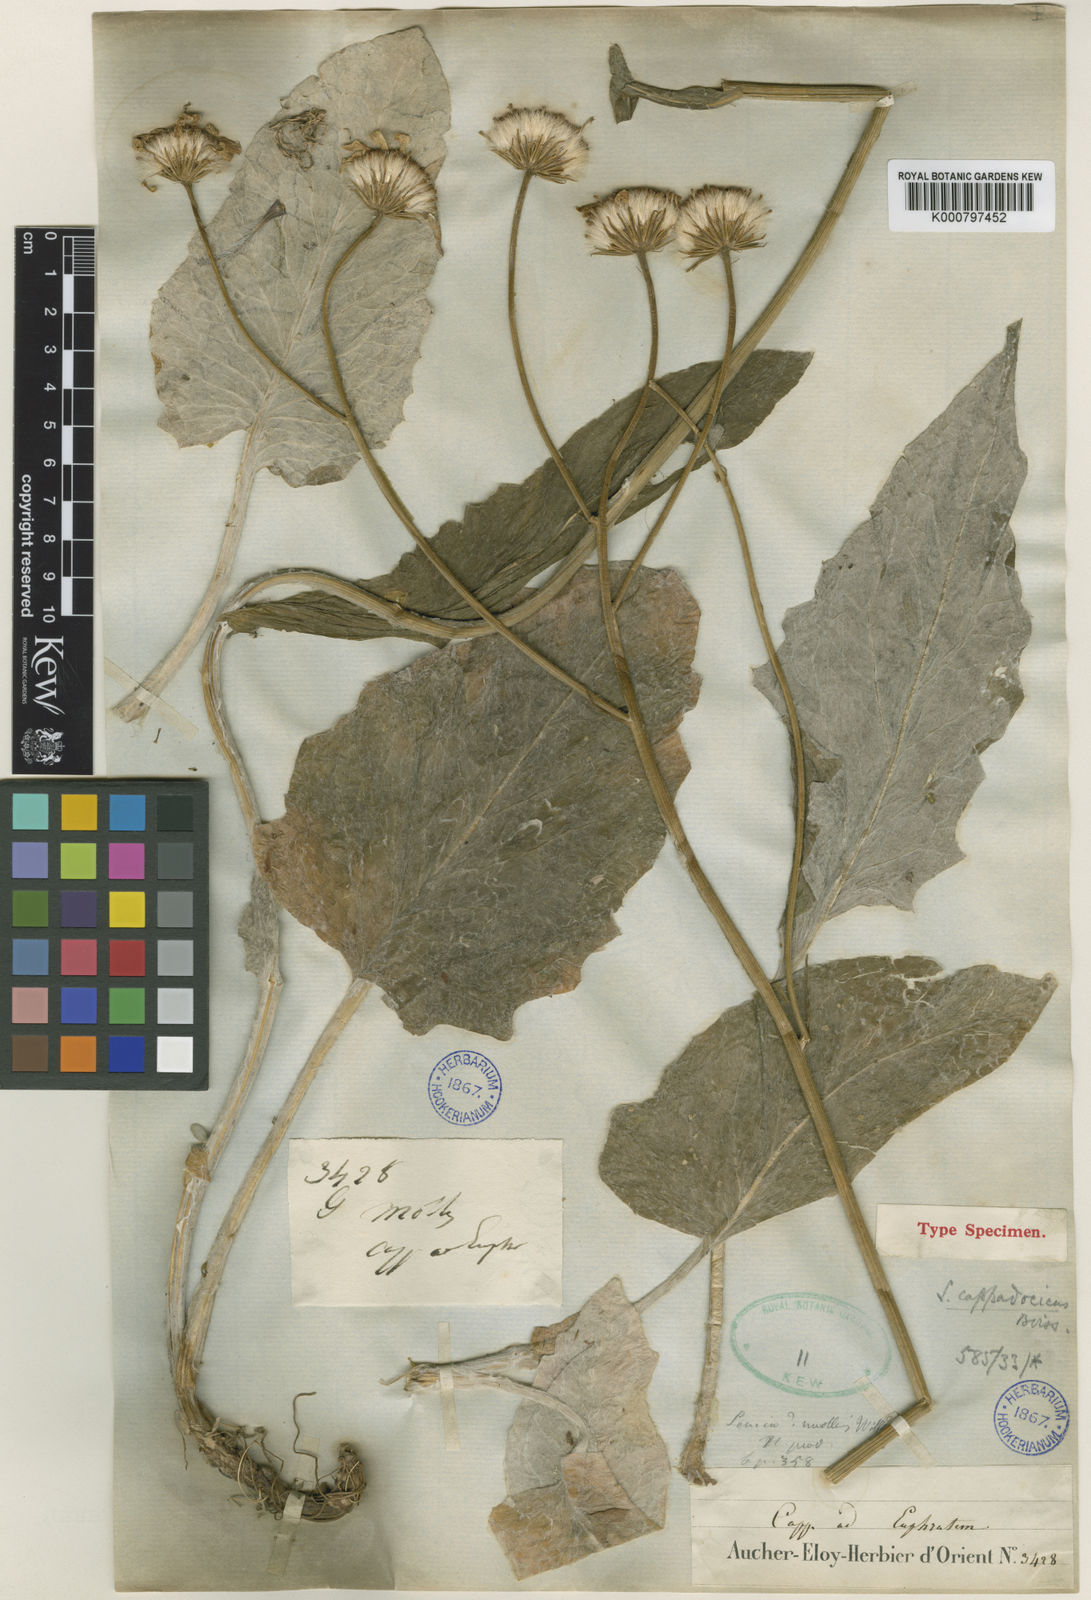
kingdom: Plantae
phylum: Tracheophyta
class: Magnoliopsida
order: Asterales
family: Asteraceae
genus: Turanecio
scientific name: Turanecio hypochionaeus
